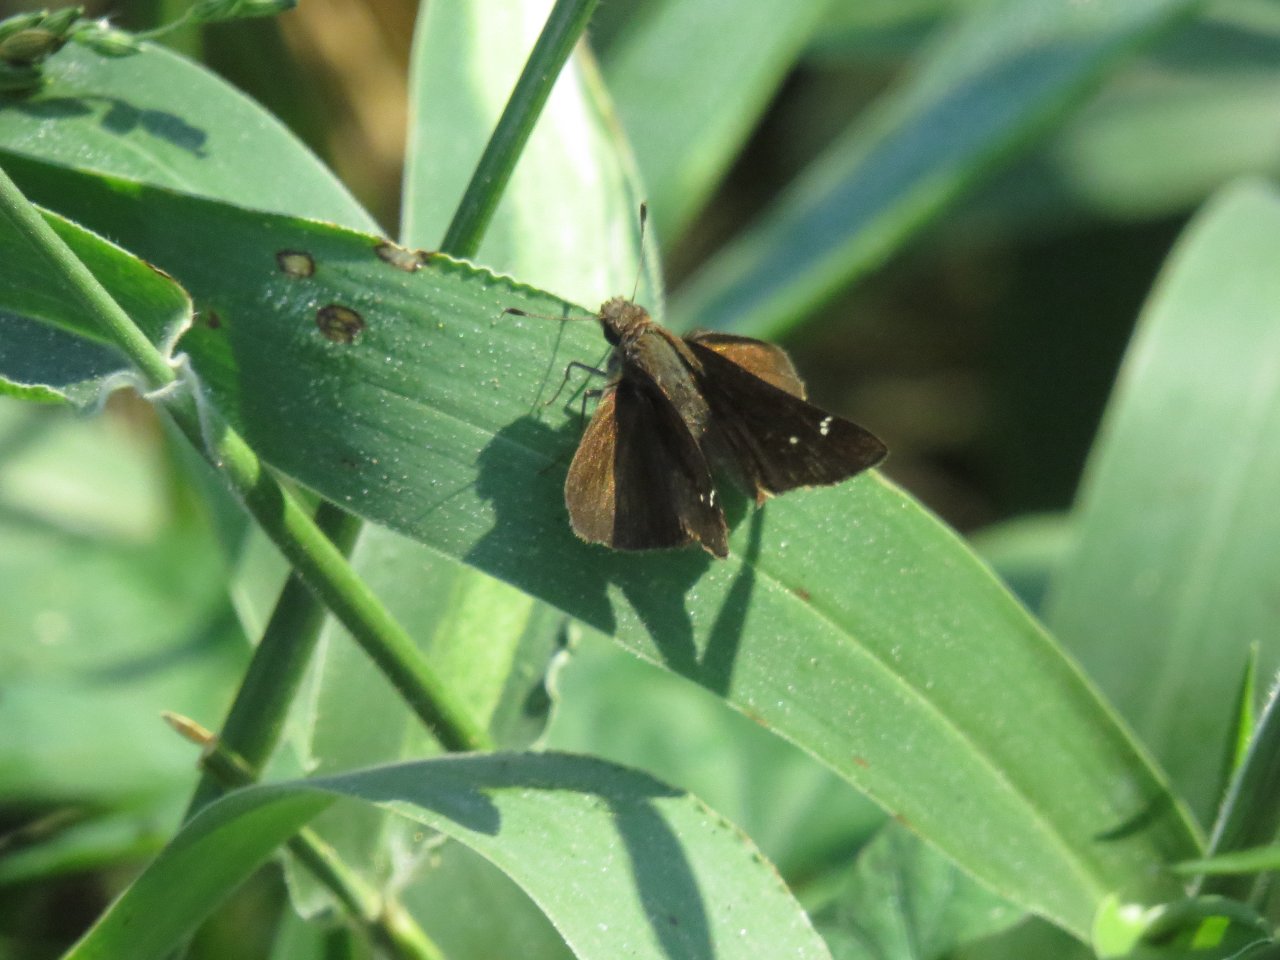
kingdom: Animalia
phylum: Arthropoda
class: Insecta
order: Lepidoptera
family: Hesperiidae
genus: Euphyes
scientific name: Euphyes vestris
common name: Dun Skipper
